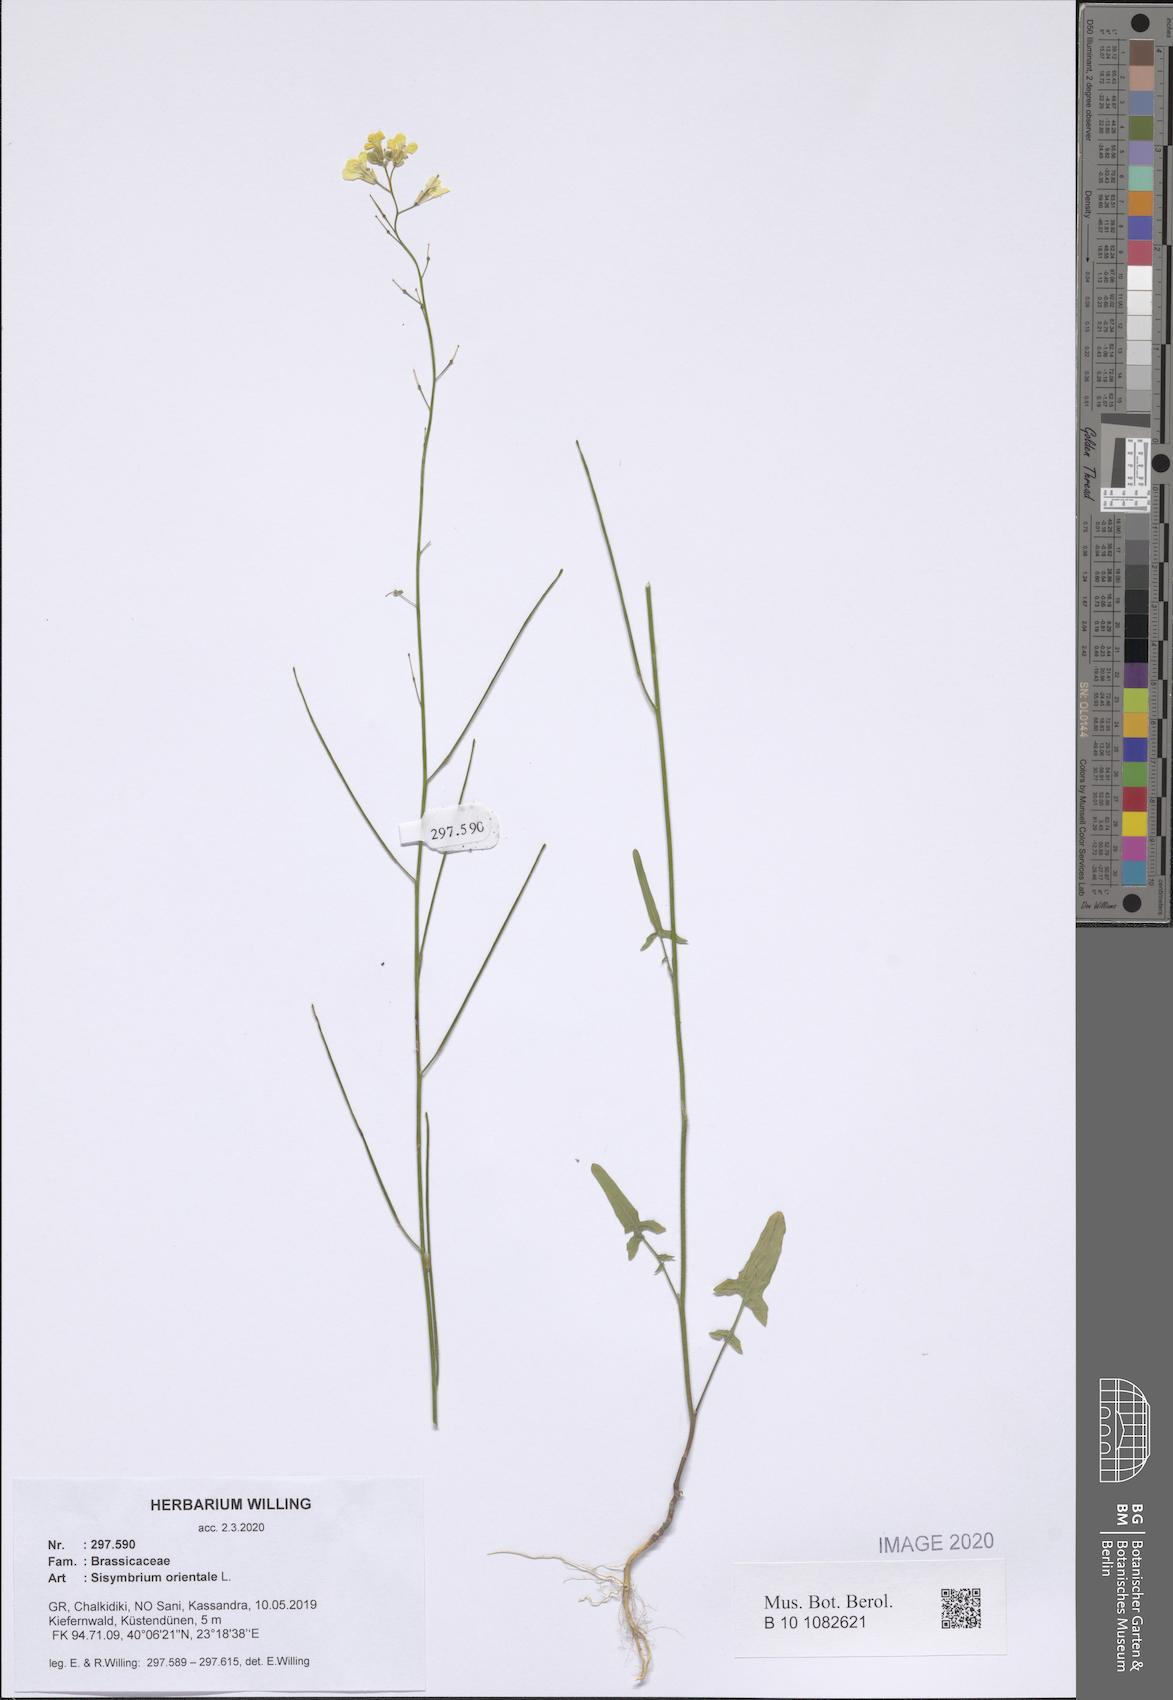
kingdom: Plantae
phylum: Tracheophyta
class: Magnoliopsida
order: Brassicales
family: Brassicaceae
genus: Sisymbrium
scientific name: Sisymbrium orientale
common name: Eastern rocket
